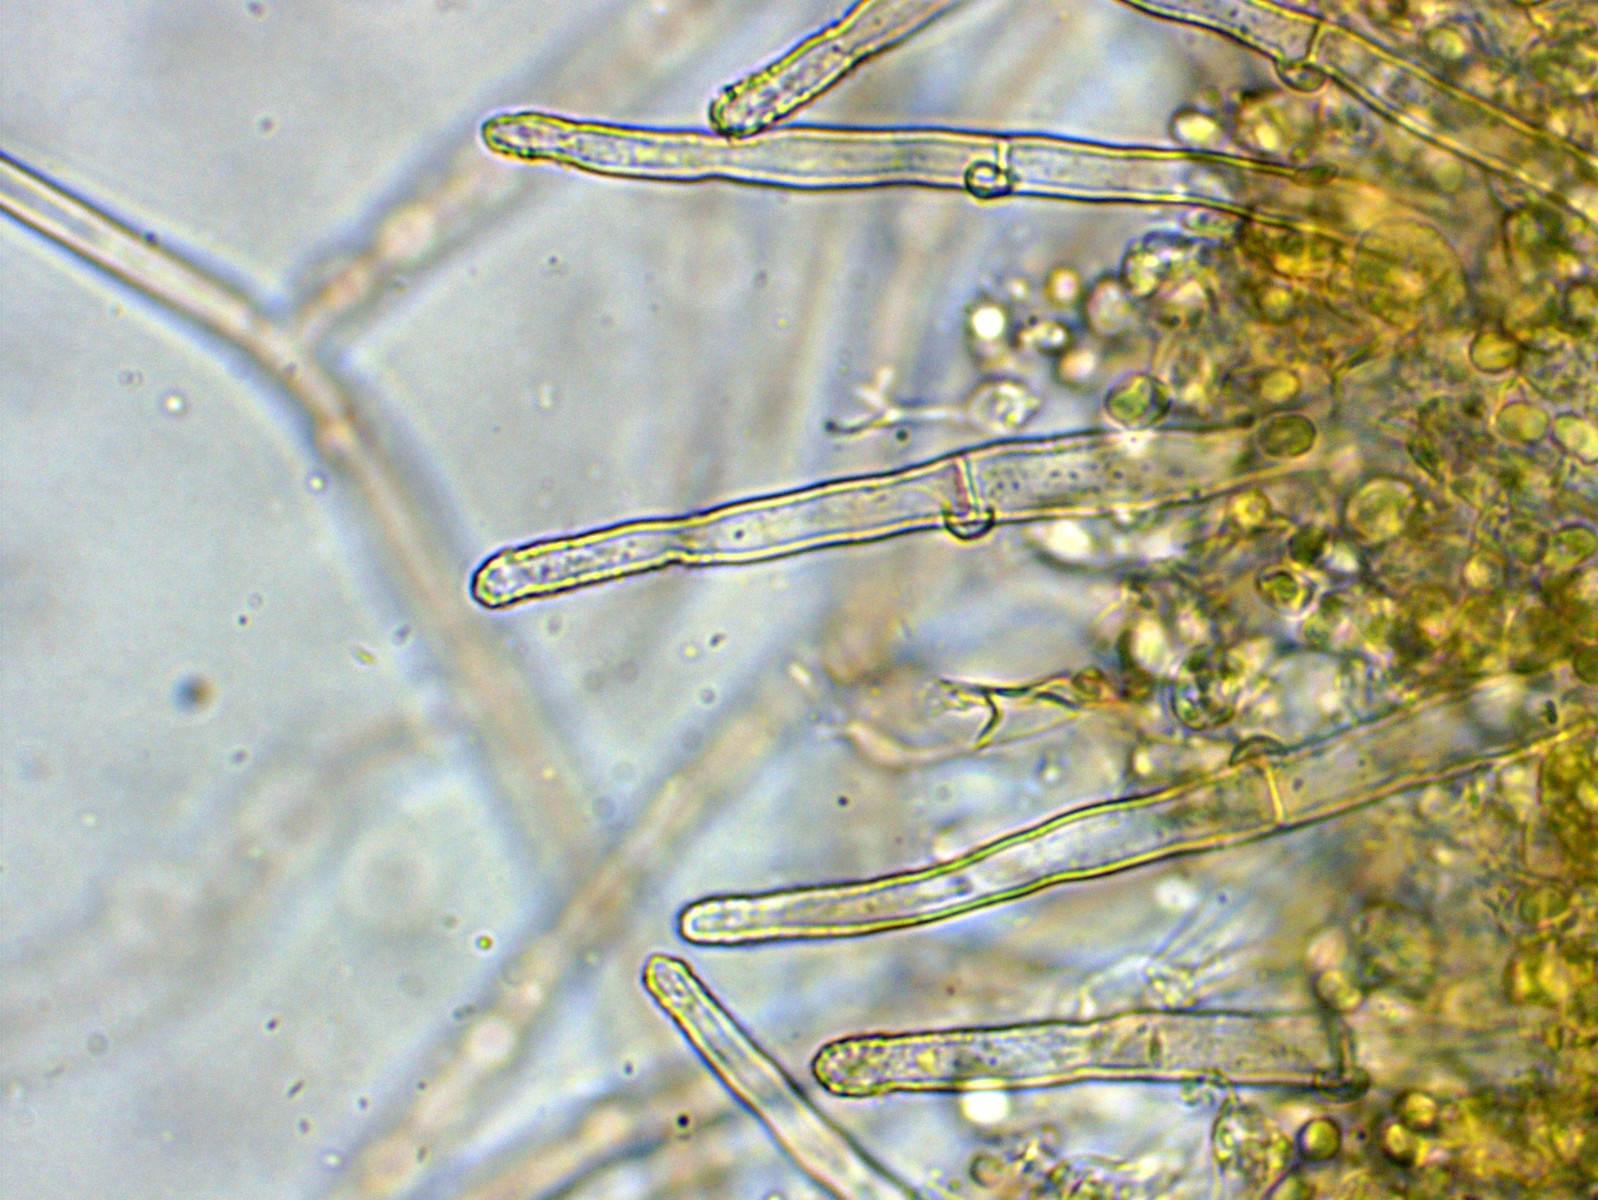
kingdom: Fungi
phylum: Basidiomycota
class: Agaricomycetes
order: Atheliales
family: Atheliaceae
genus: Amphinema
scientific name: Amphinema byssoides
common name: almindelig rodhinde
